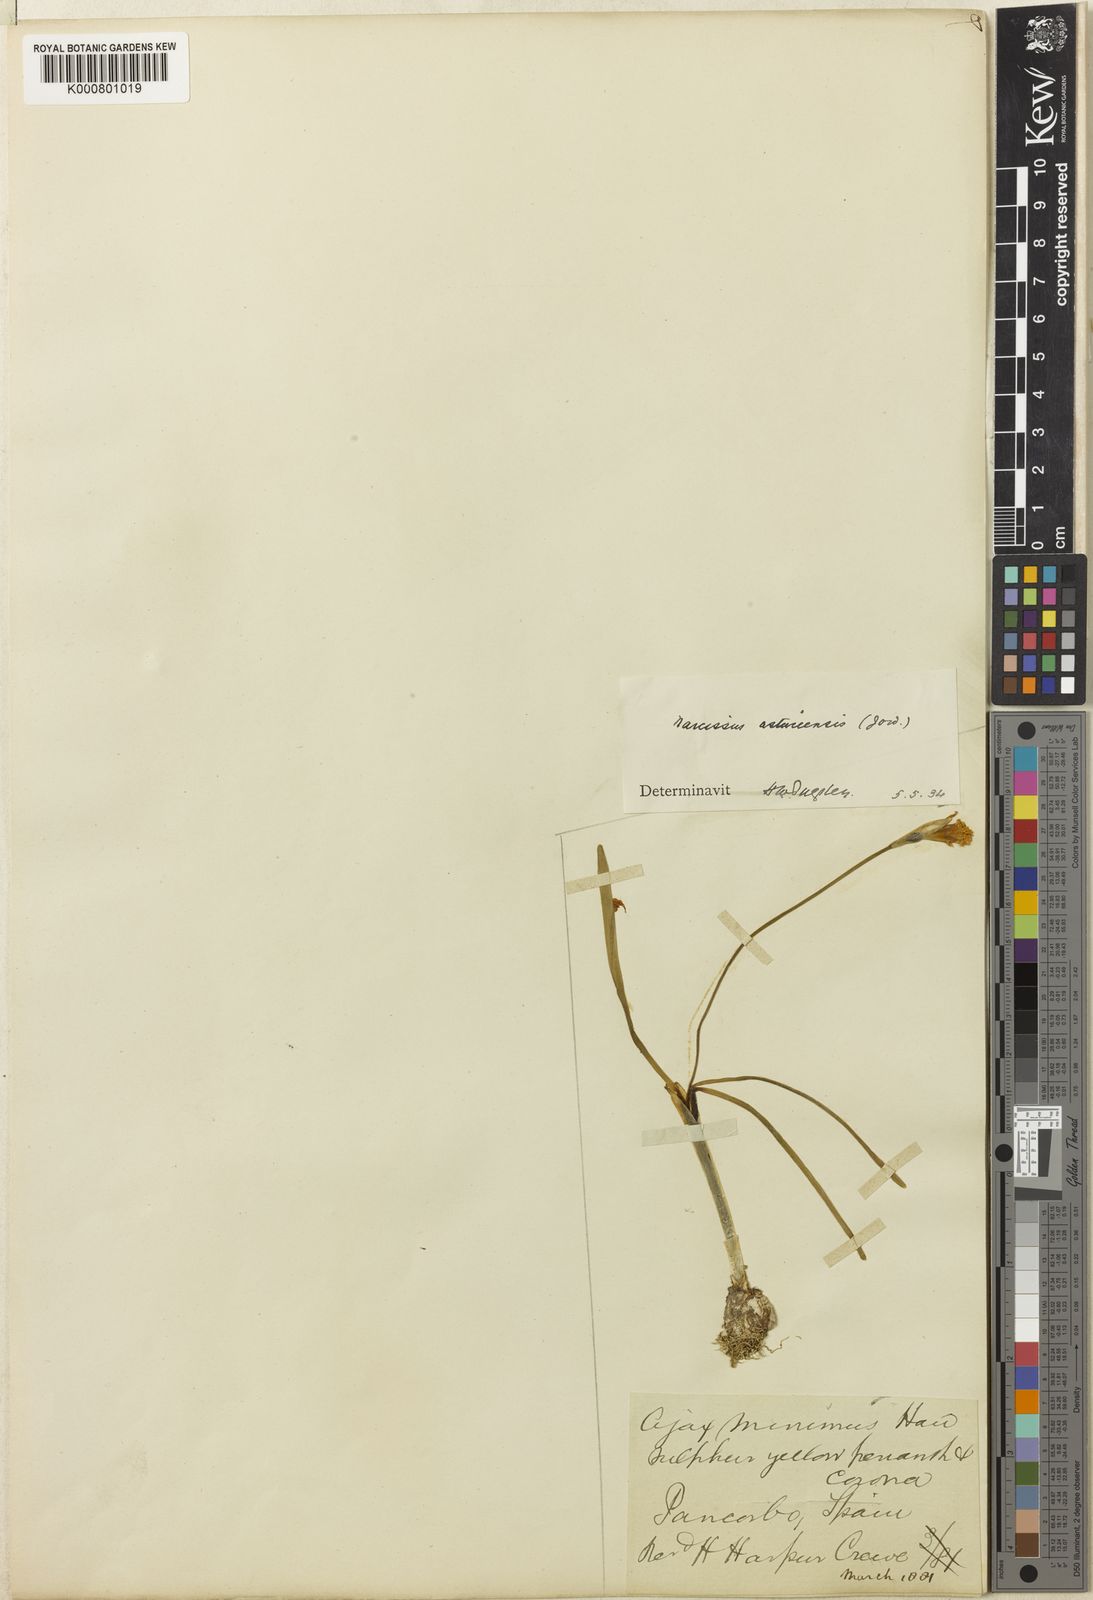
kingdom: Plantae
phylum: Tracheophyta
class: Liliopsida
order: Asparagales
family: Amaryllidaceae
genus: Narcissus
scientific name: Narcissus cuneiflorus
